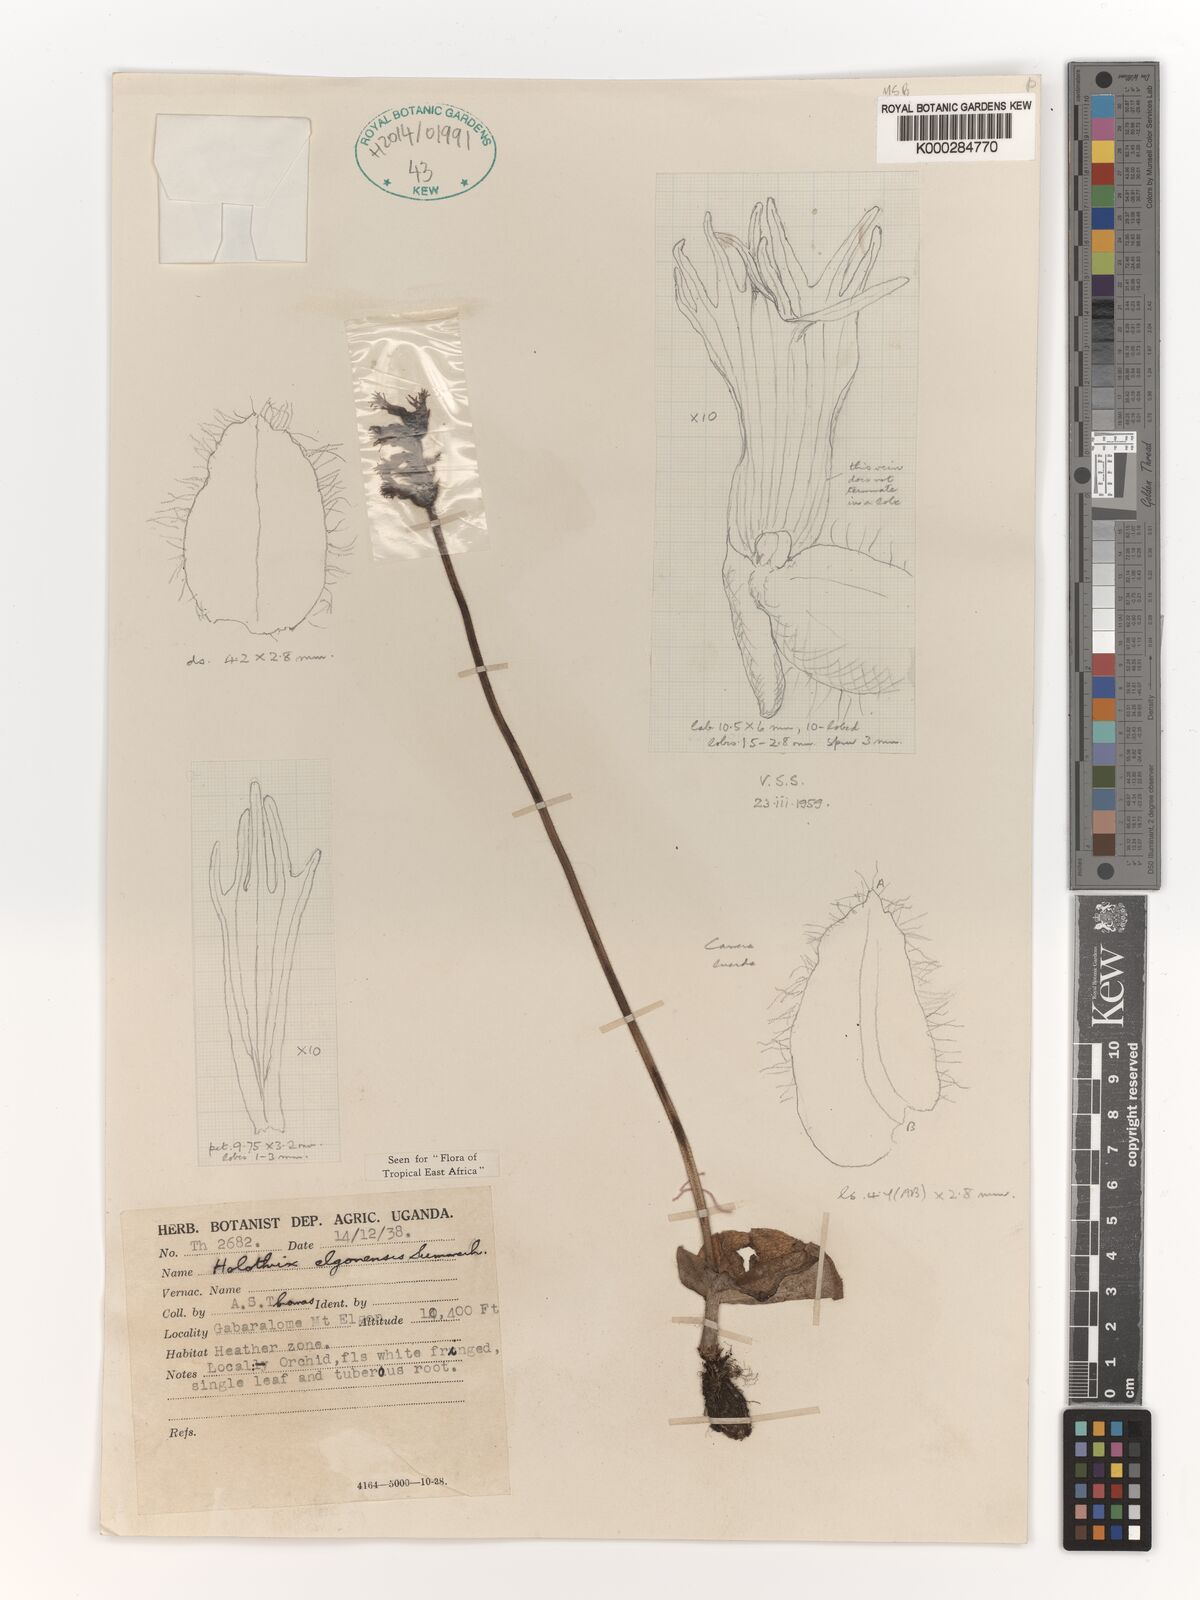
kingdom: Plantae
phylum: Tracheophyta
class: Liliopsida
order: Asparagales
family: Orchidaceae
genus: Holothrix
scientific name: Holothrix elgonensis
